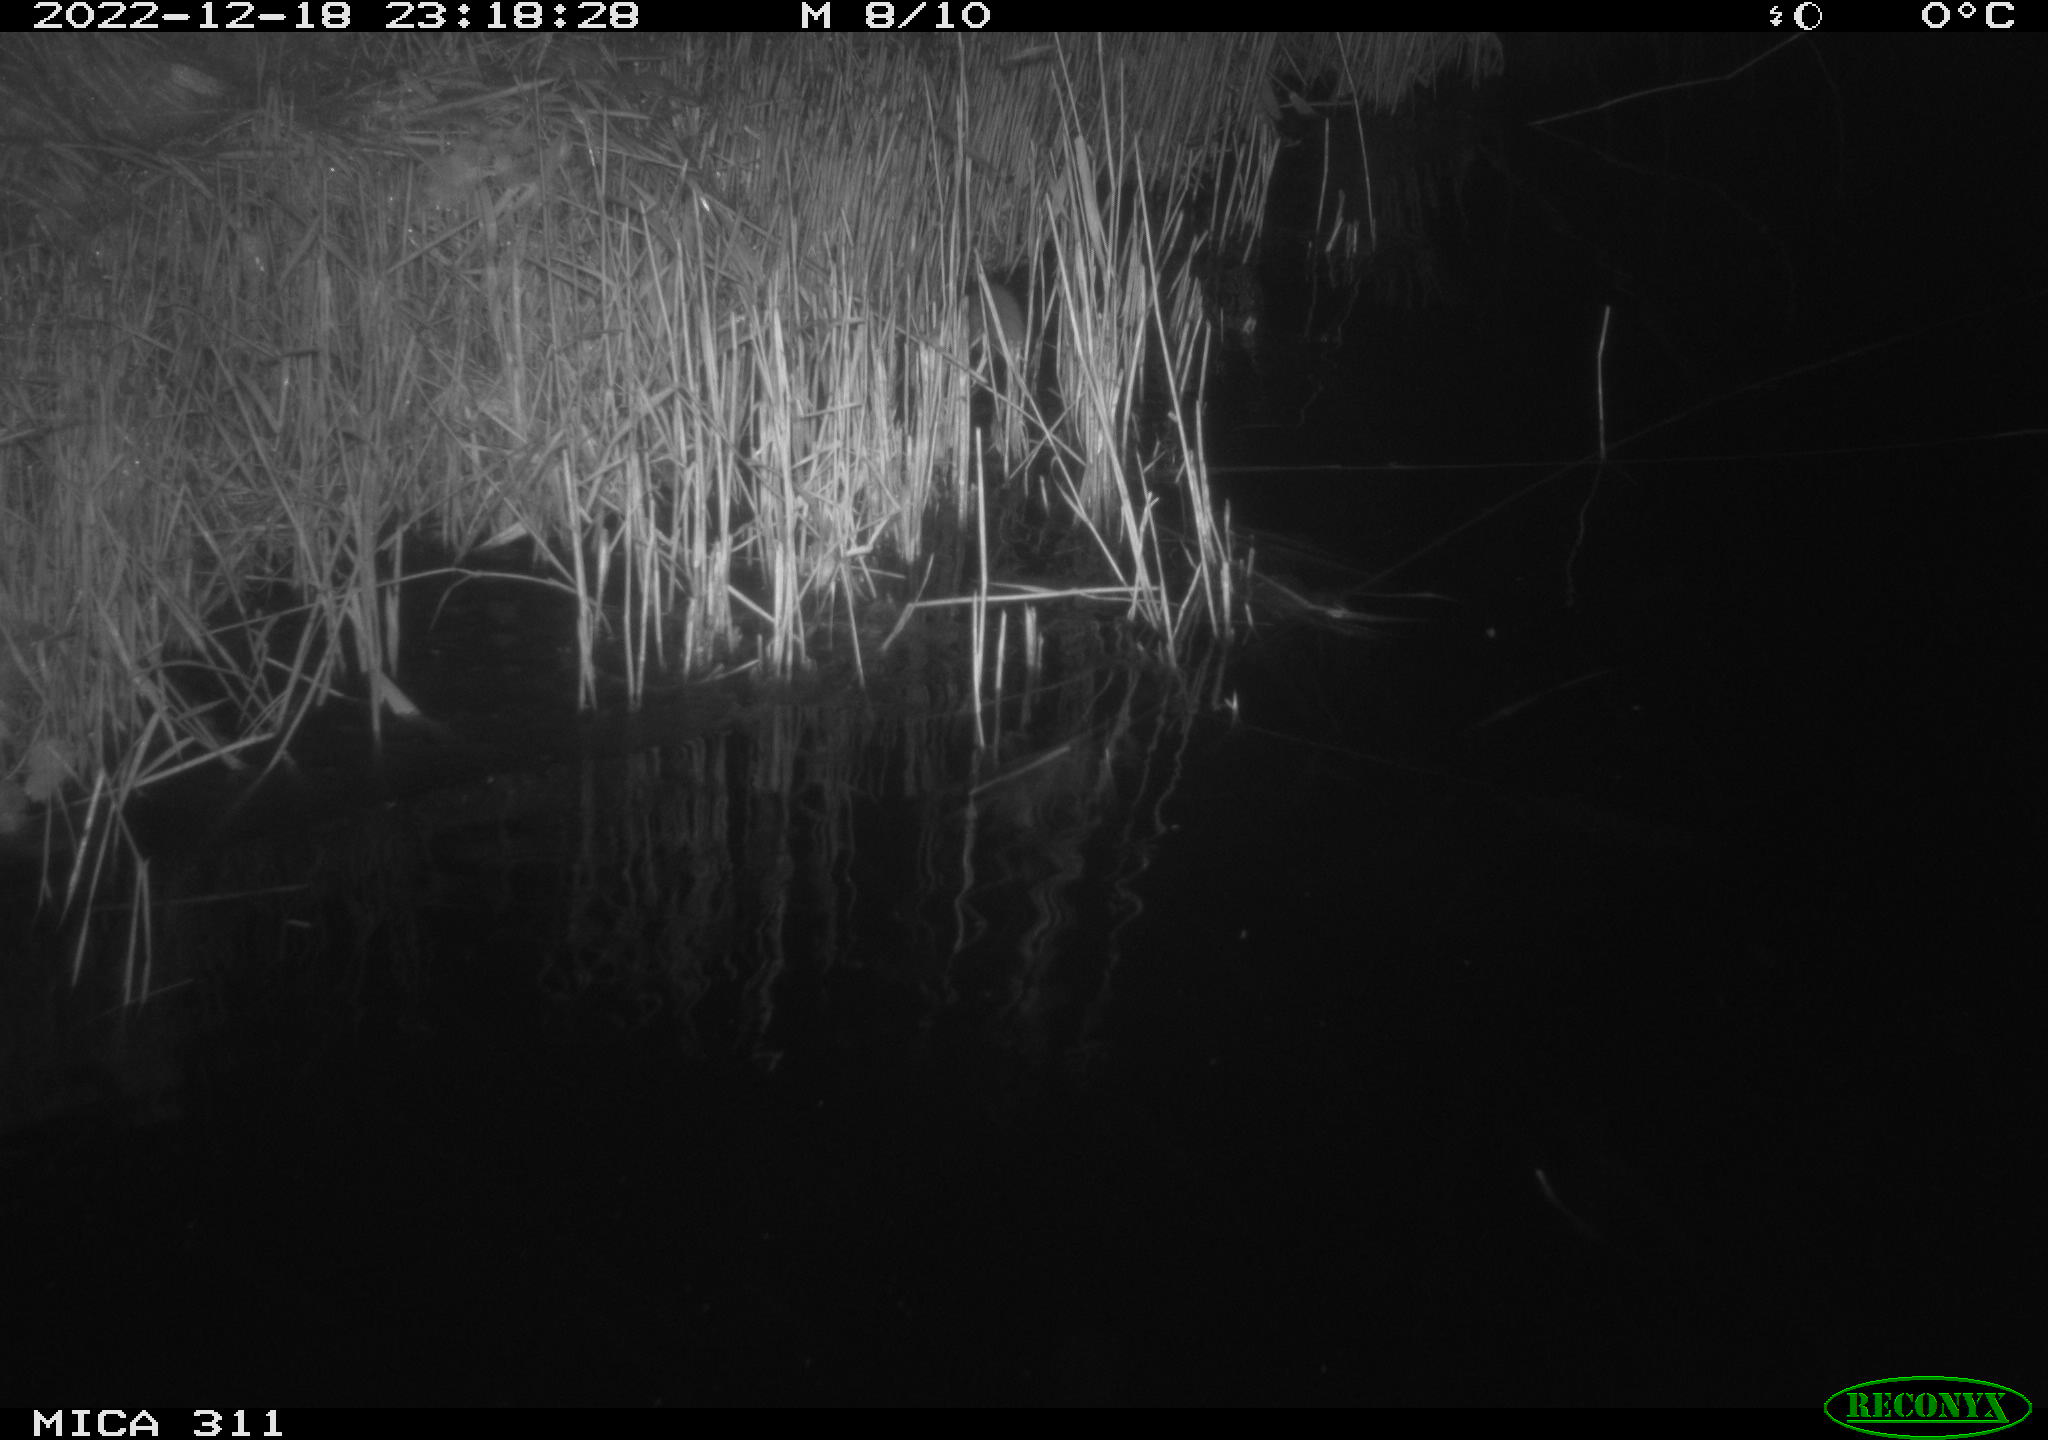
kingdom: Animalia
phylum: Chordata
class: Mammalia
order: Rodentia
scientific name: Rodentia
